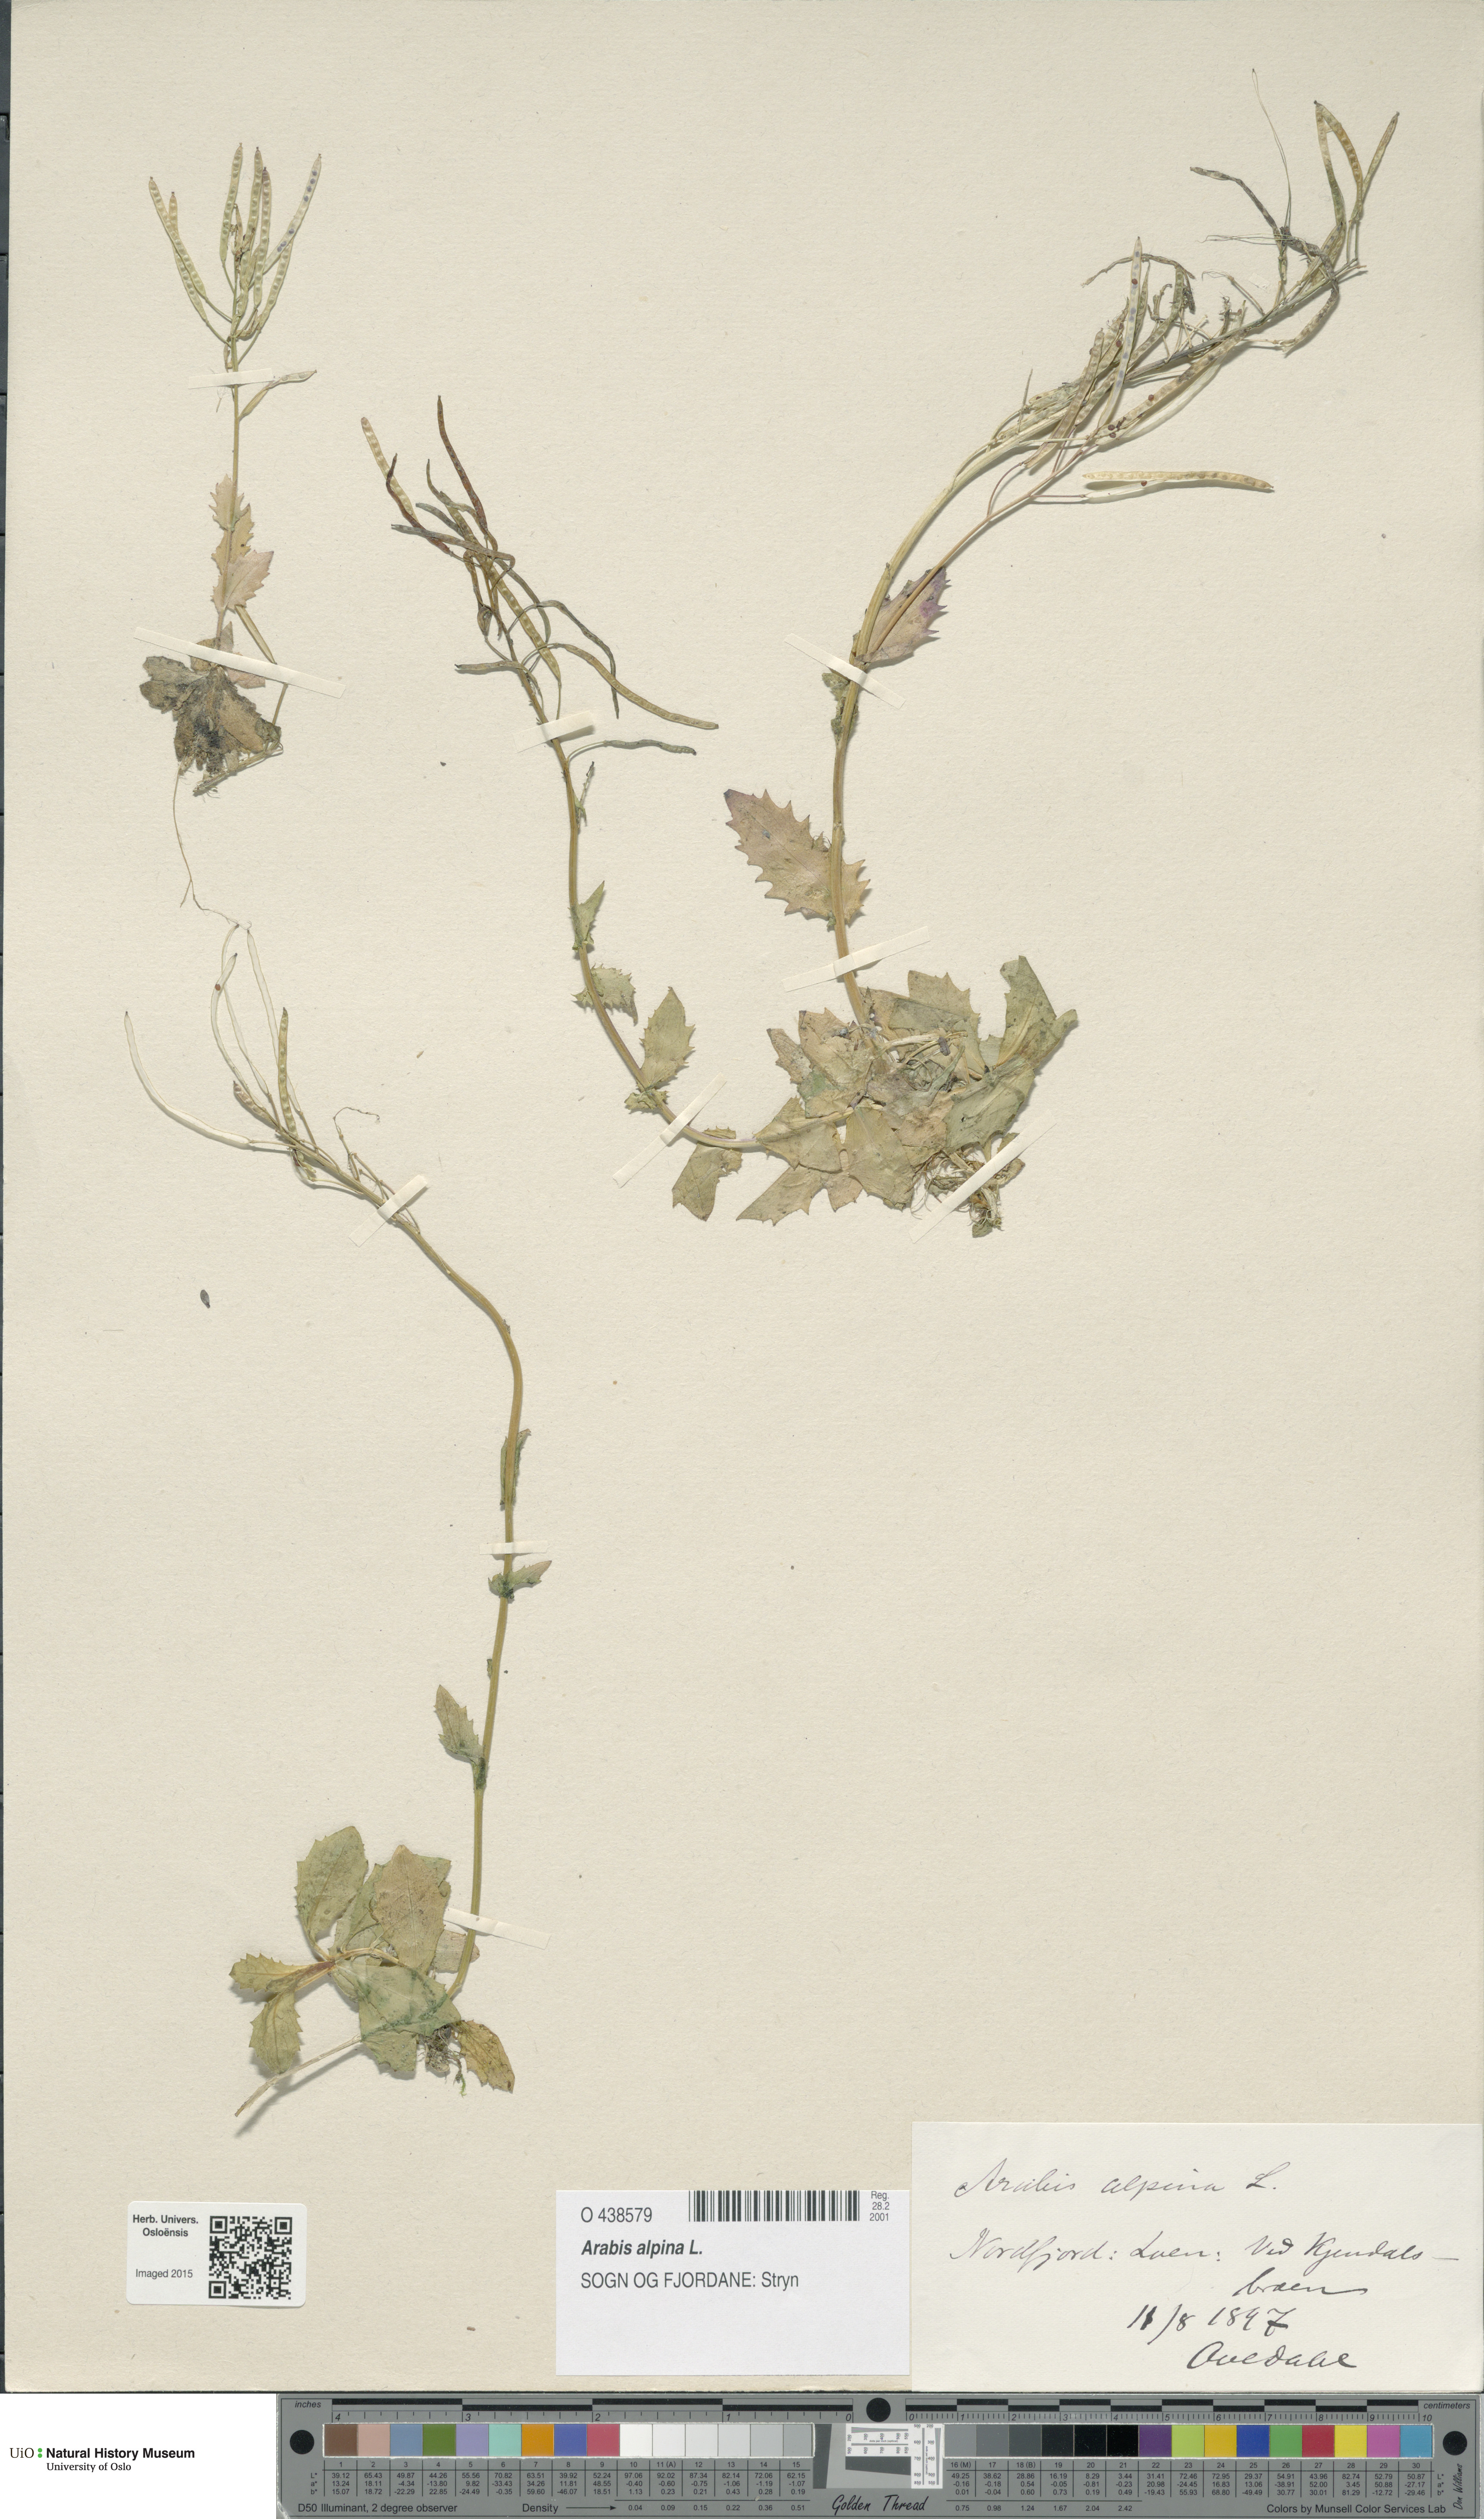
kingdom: Plantae
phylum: Tracheophyta
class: Magnoliopsida
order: Brassicales
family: Brassicaceae
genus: Arabis
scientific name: Arabis alpina
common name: Alpine rock-cress
